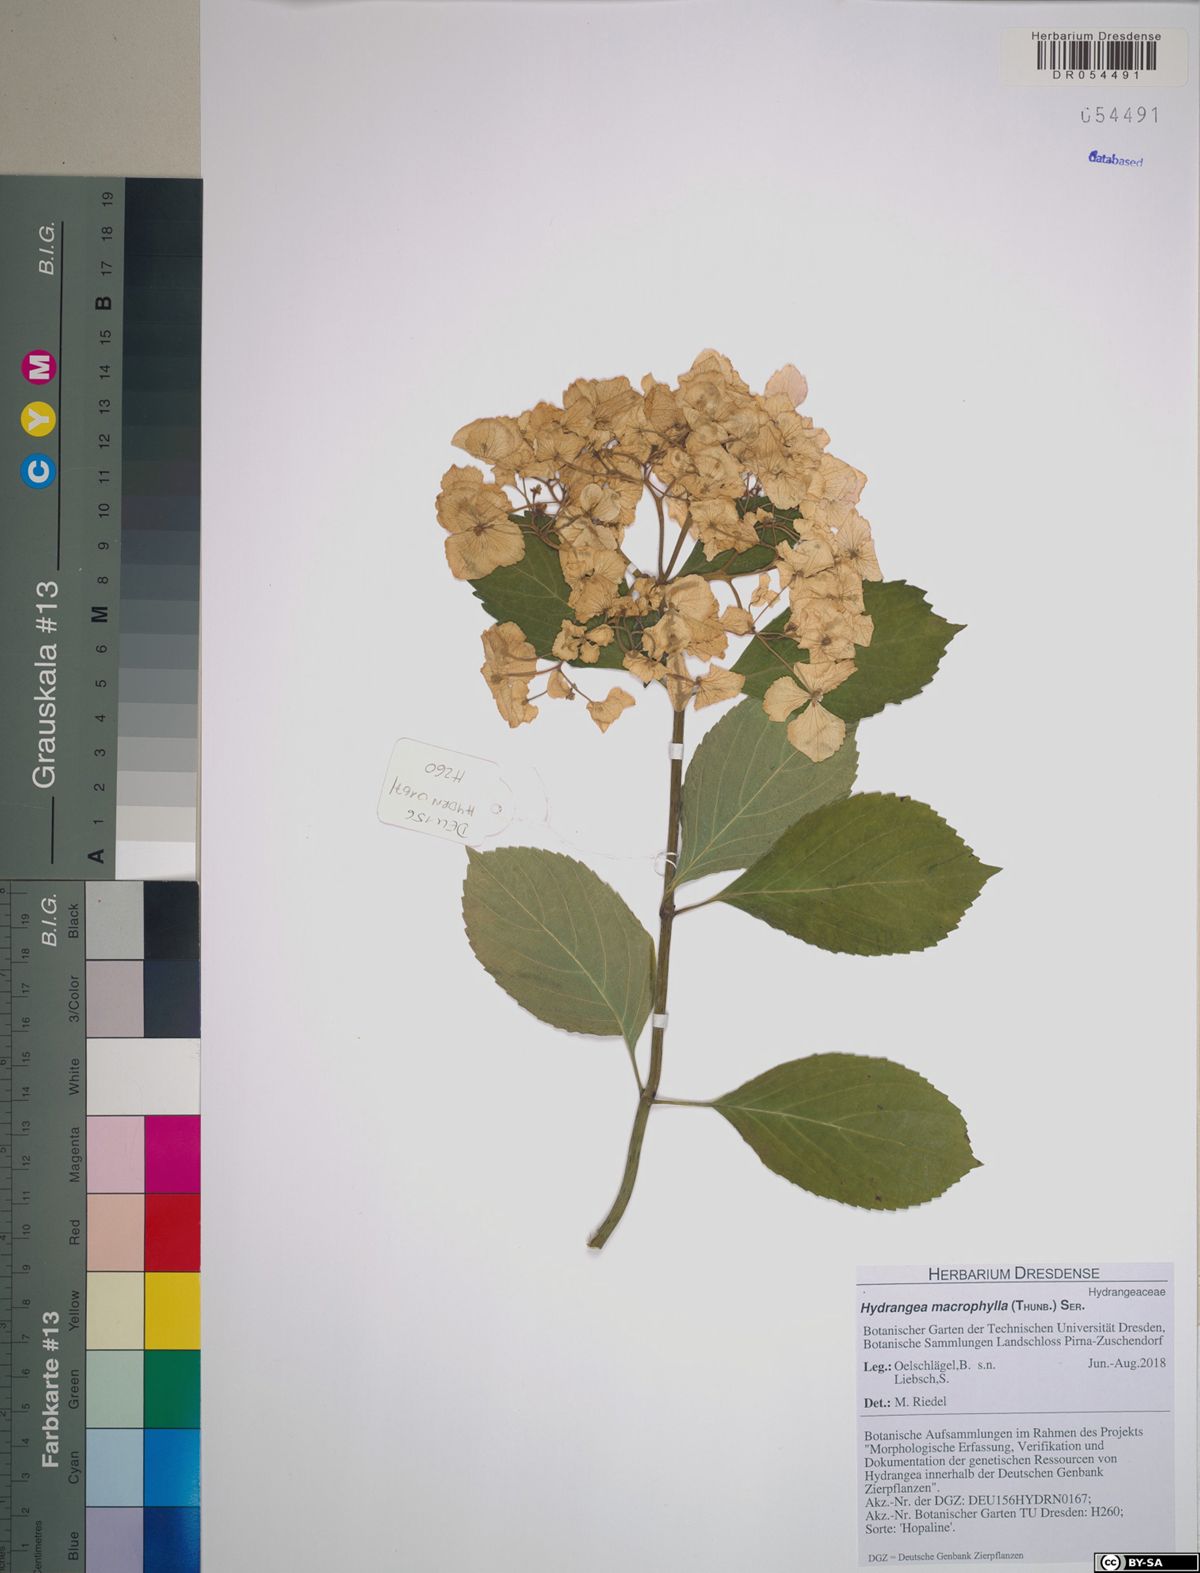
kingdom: Plantae
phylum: Tracheophyta
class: Magnoliopsida
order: Cornales
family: Hydrangeaceae
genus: Hydrangea
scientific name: Hydrangea macrophylla
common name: Hydrangea
